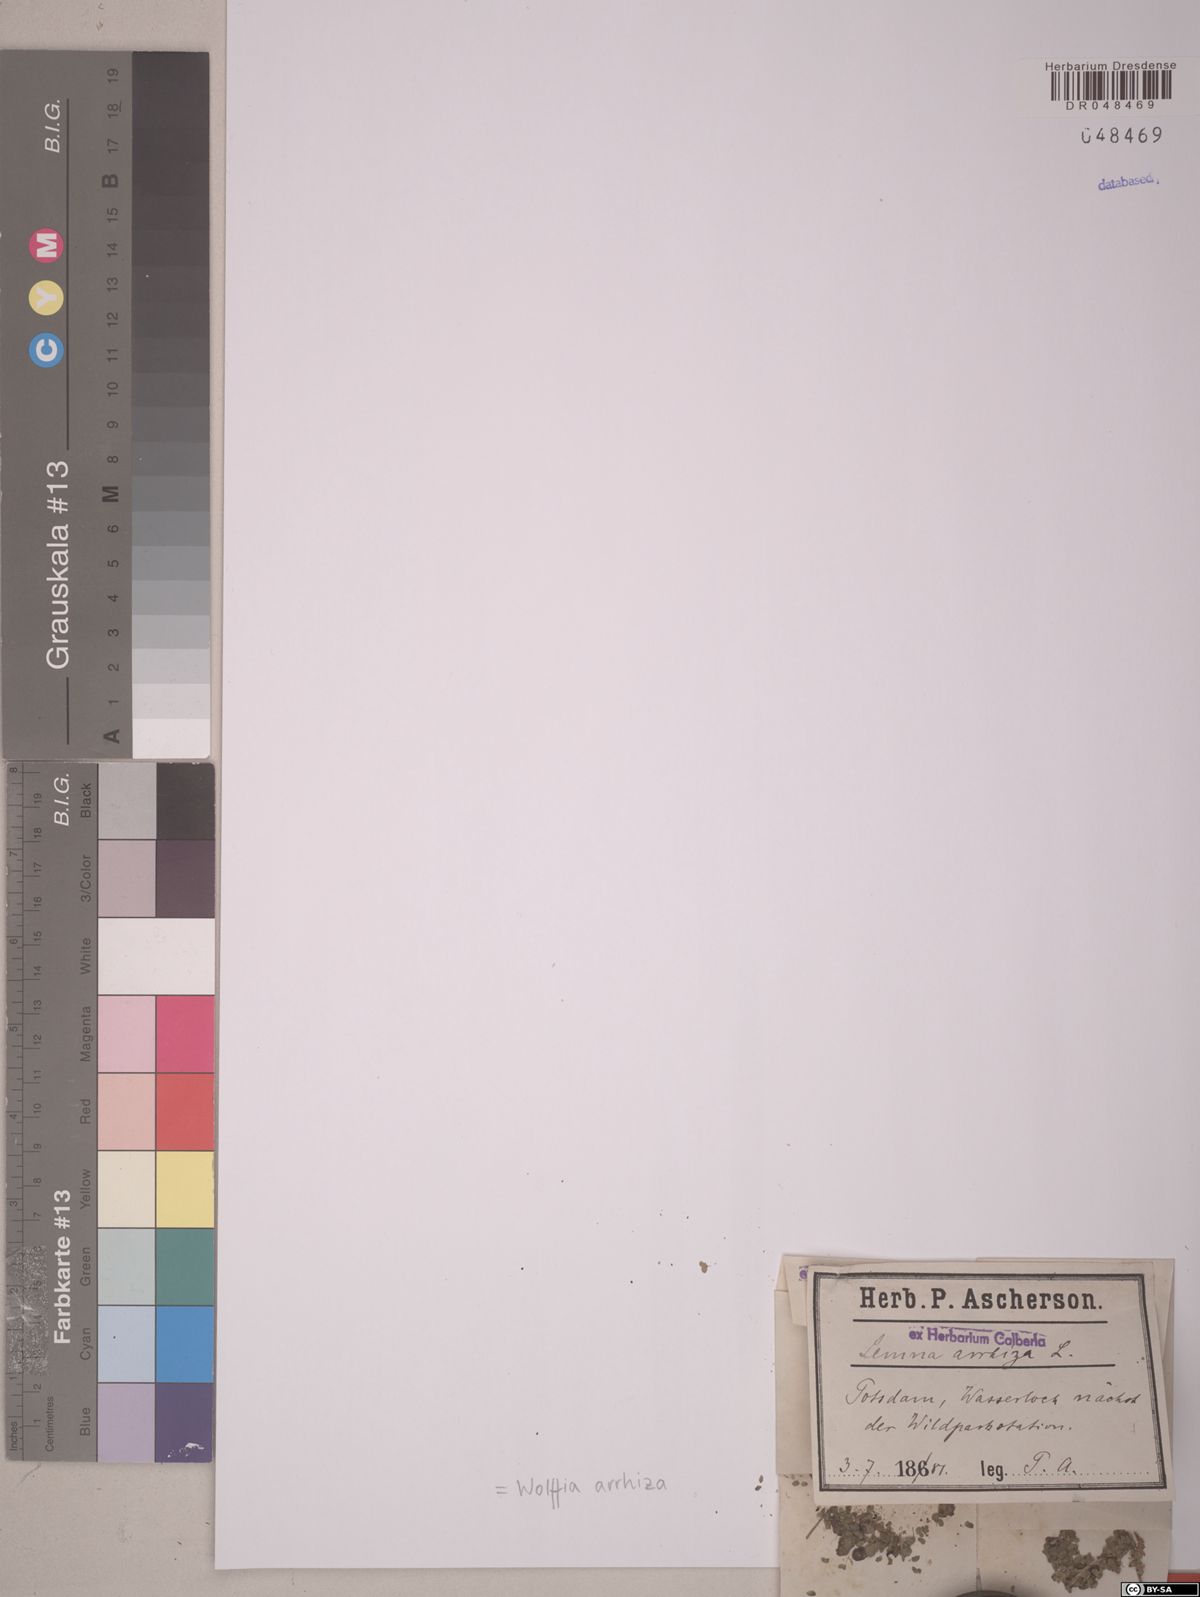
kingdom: Plantae
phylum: Tracheophyta
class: Liliopsida
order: Alismatales
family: Araceae
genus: Wolffia
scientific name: Wolffia arrhiza
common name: Rootless duckweed
